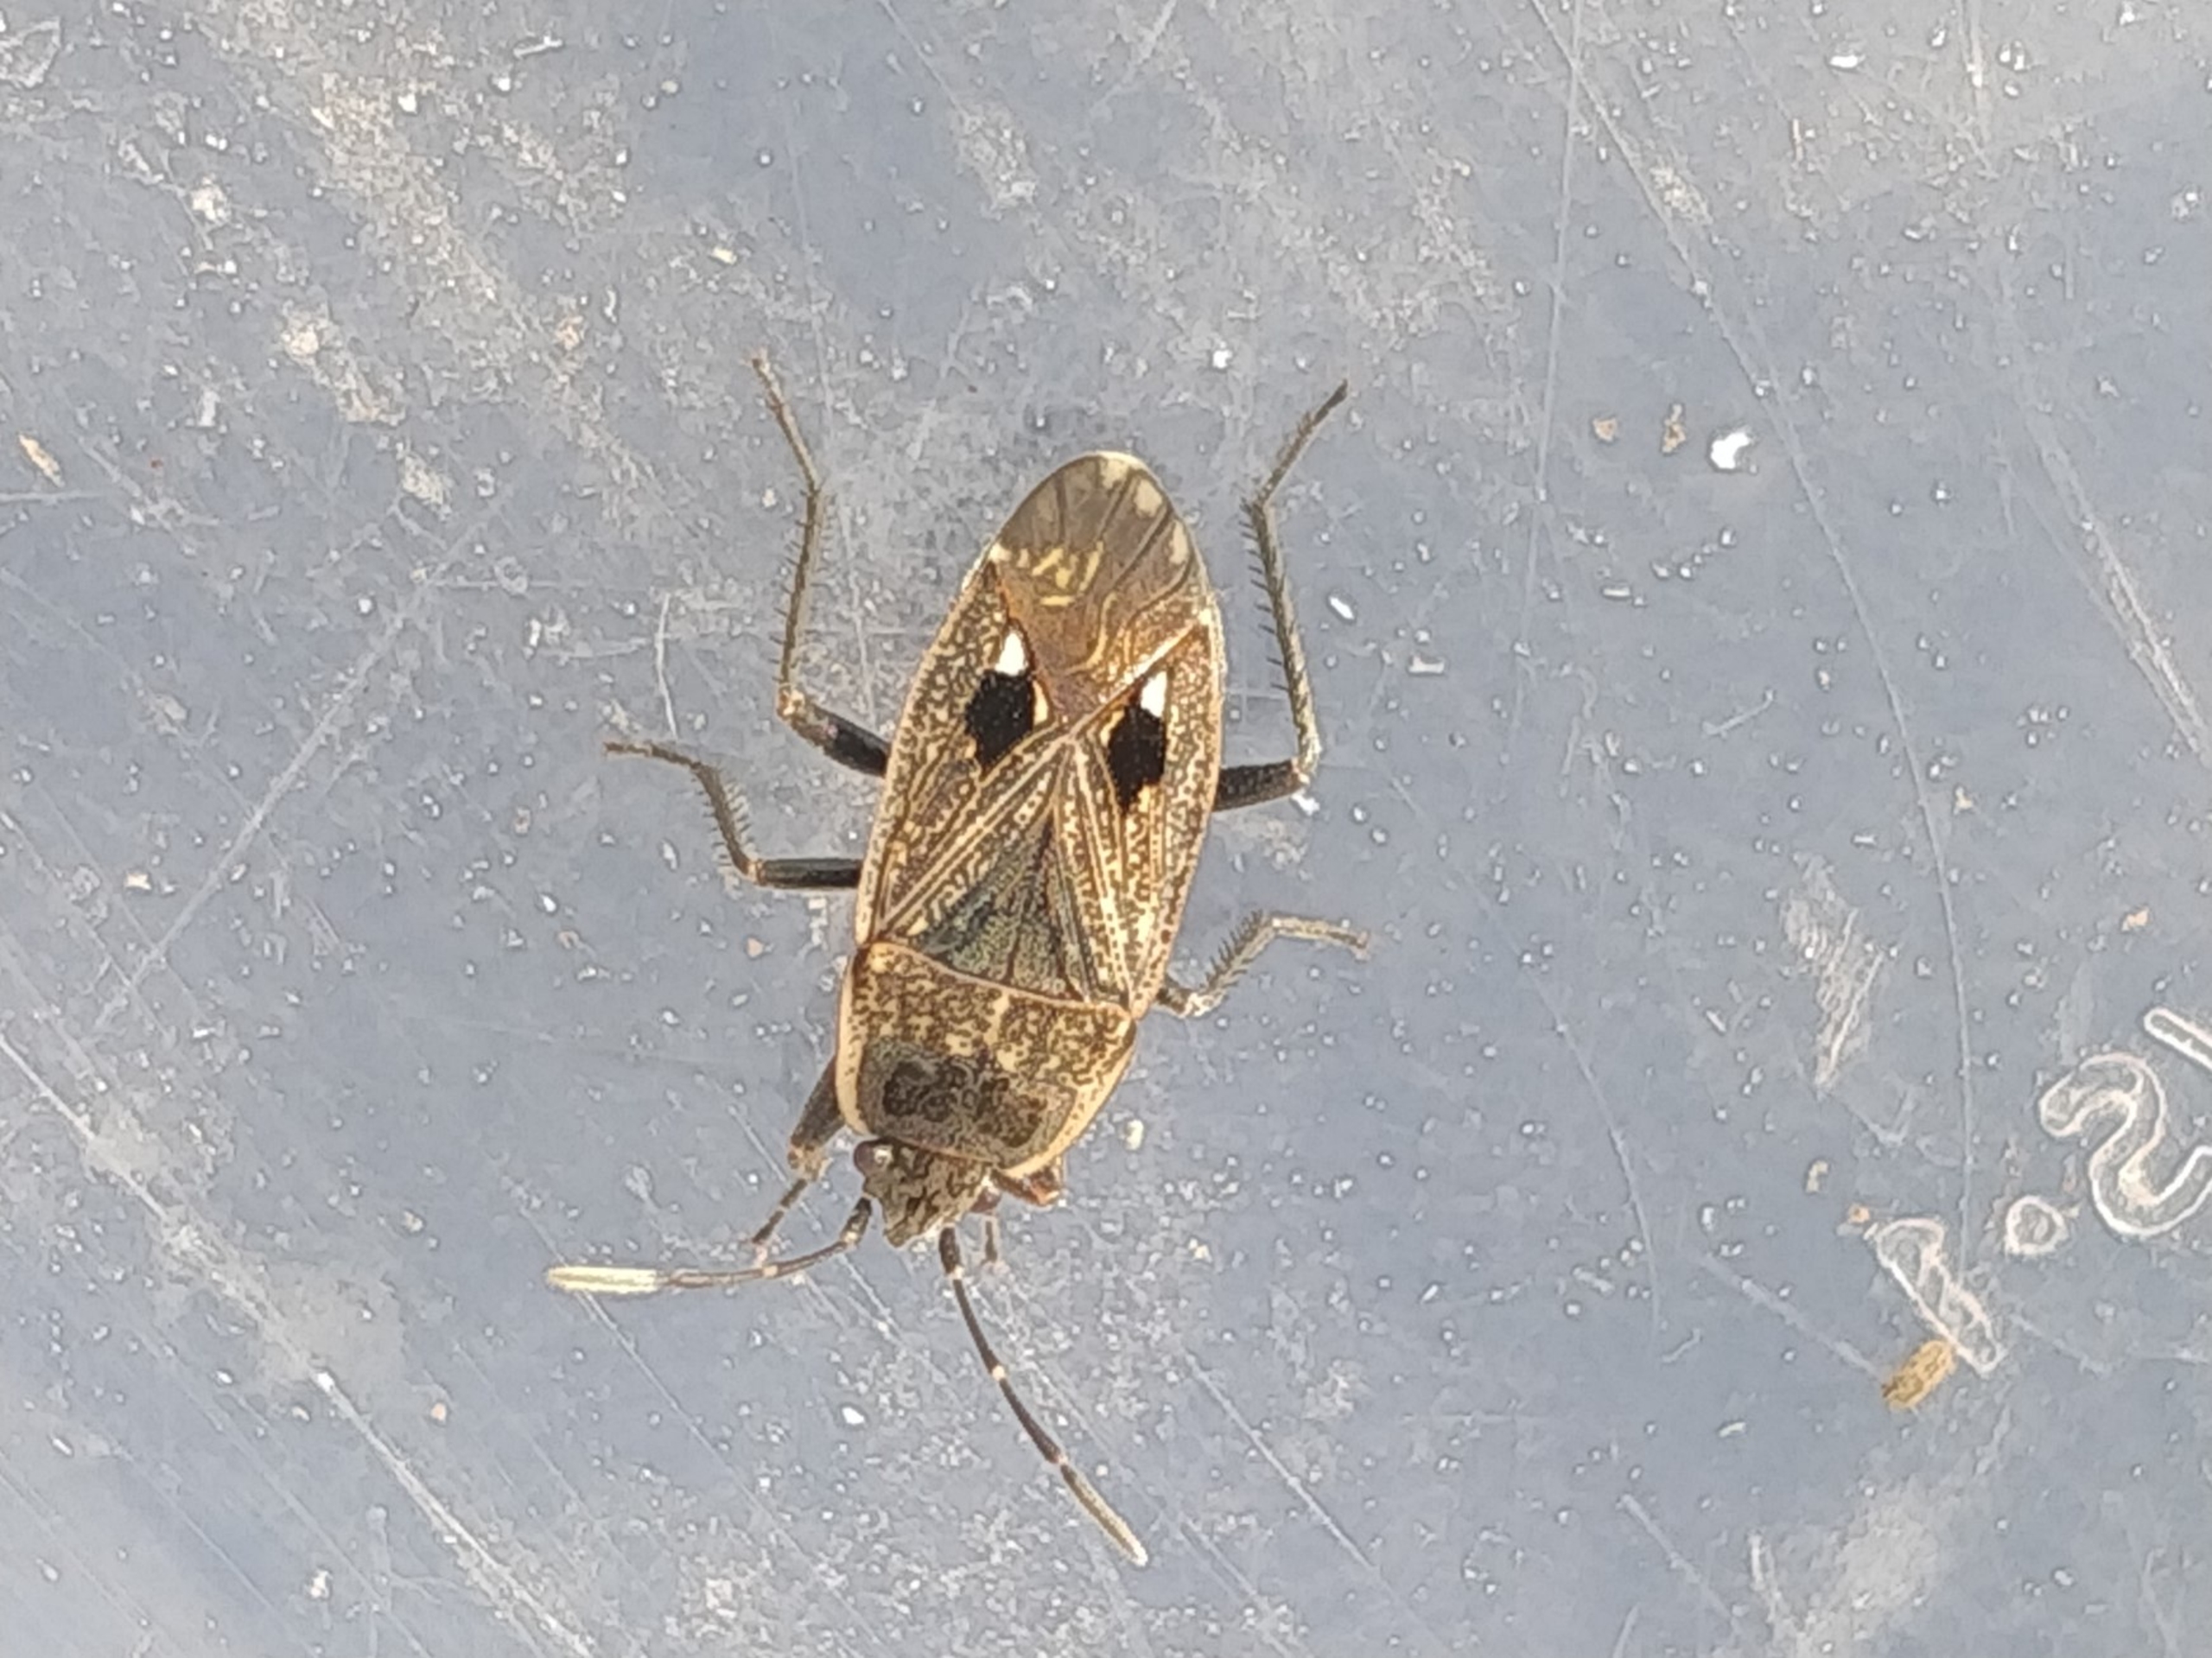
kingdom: Animalia
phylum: Arthropoda
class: Insecta
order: Hemiptera
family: Rhyparochromidae
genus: Graptopeltus
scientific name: Graptopeltus lynceus
